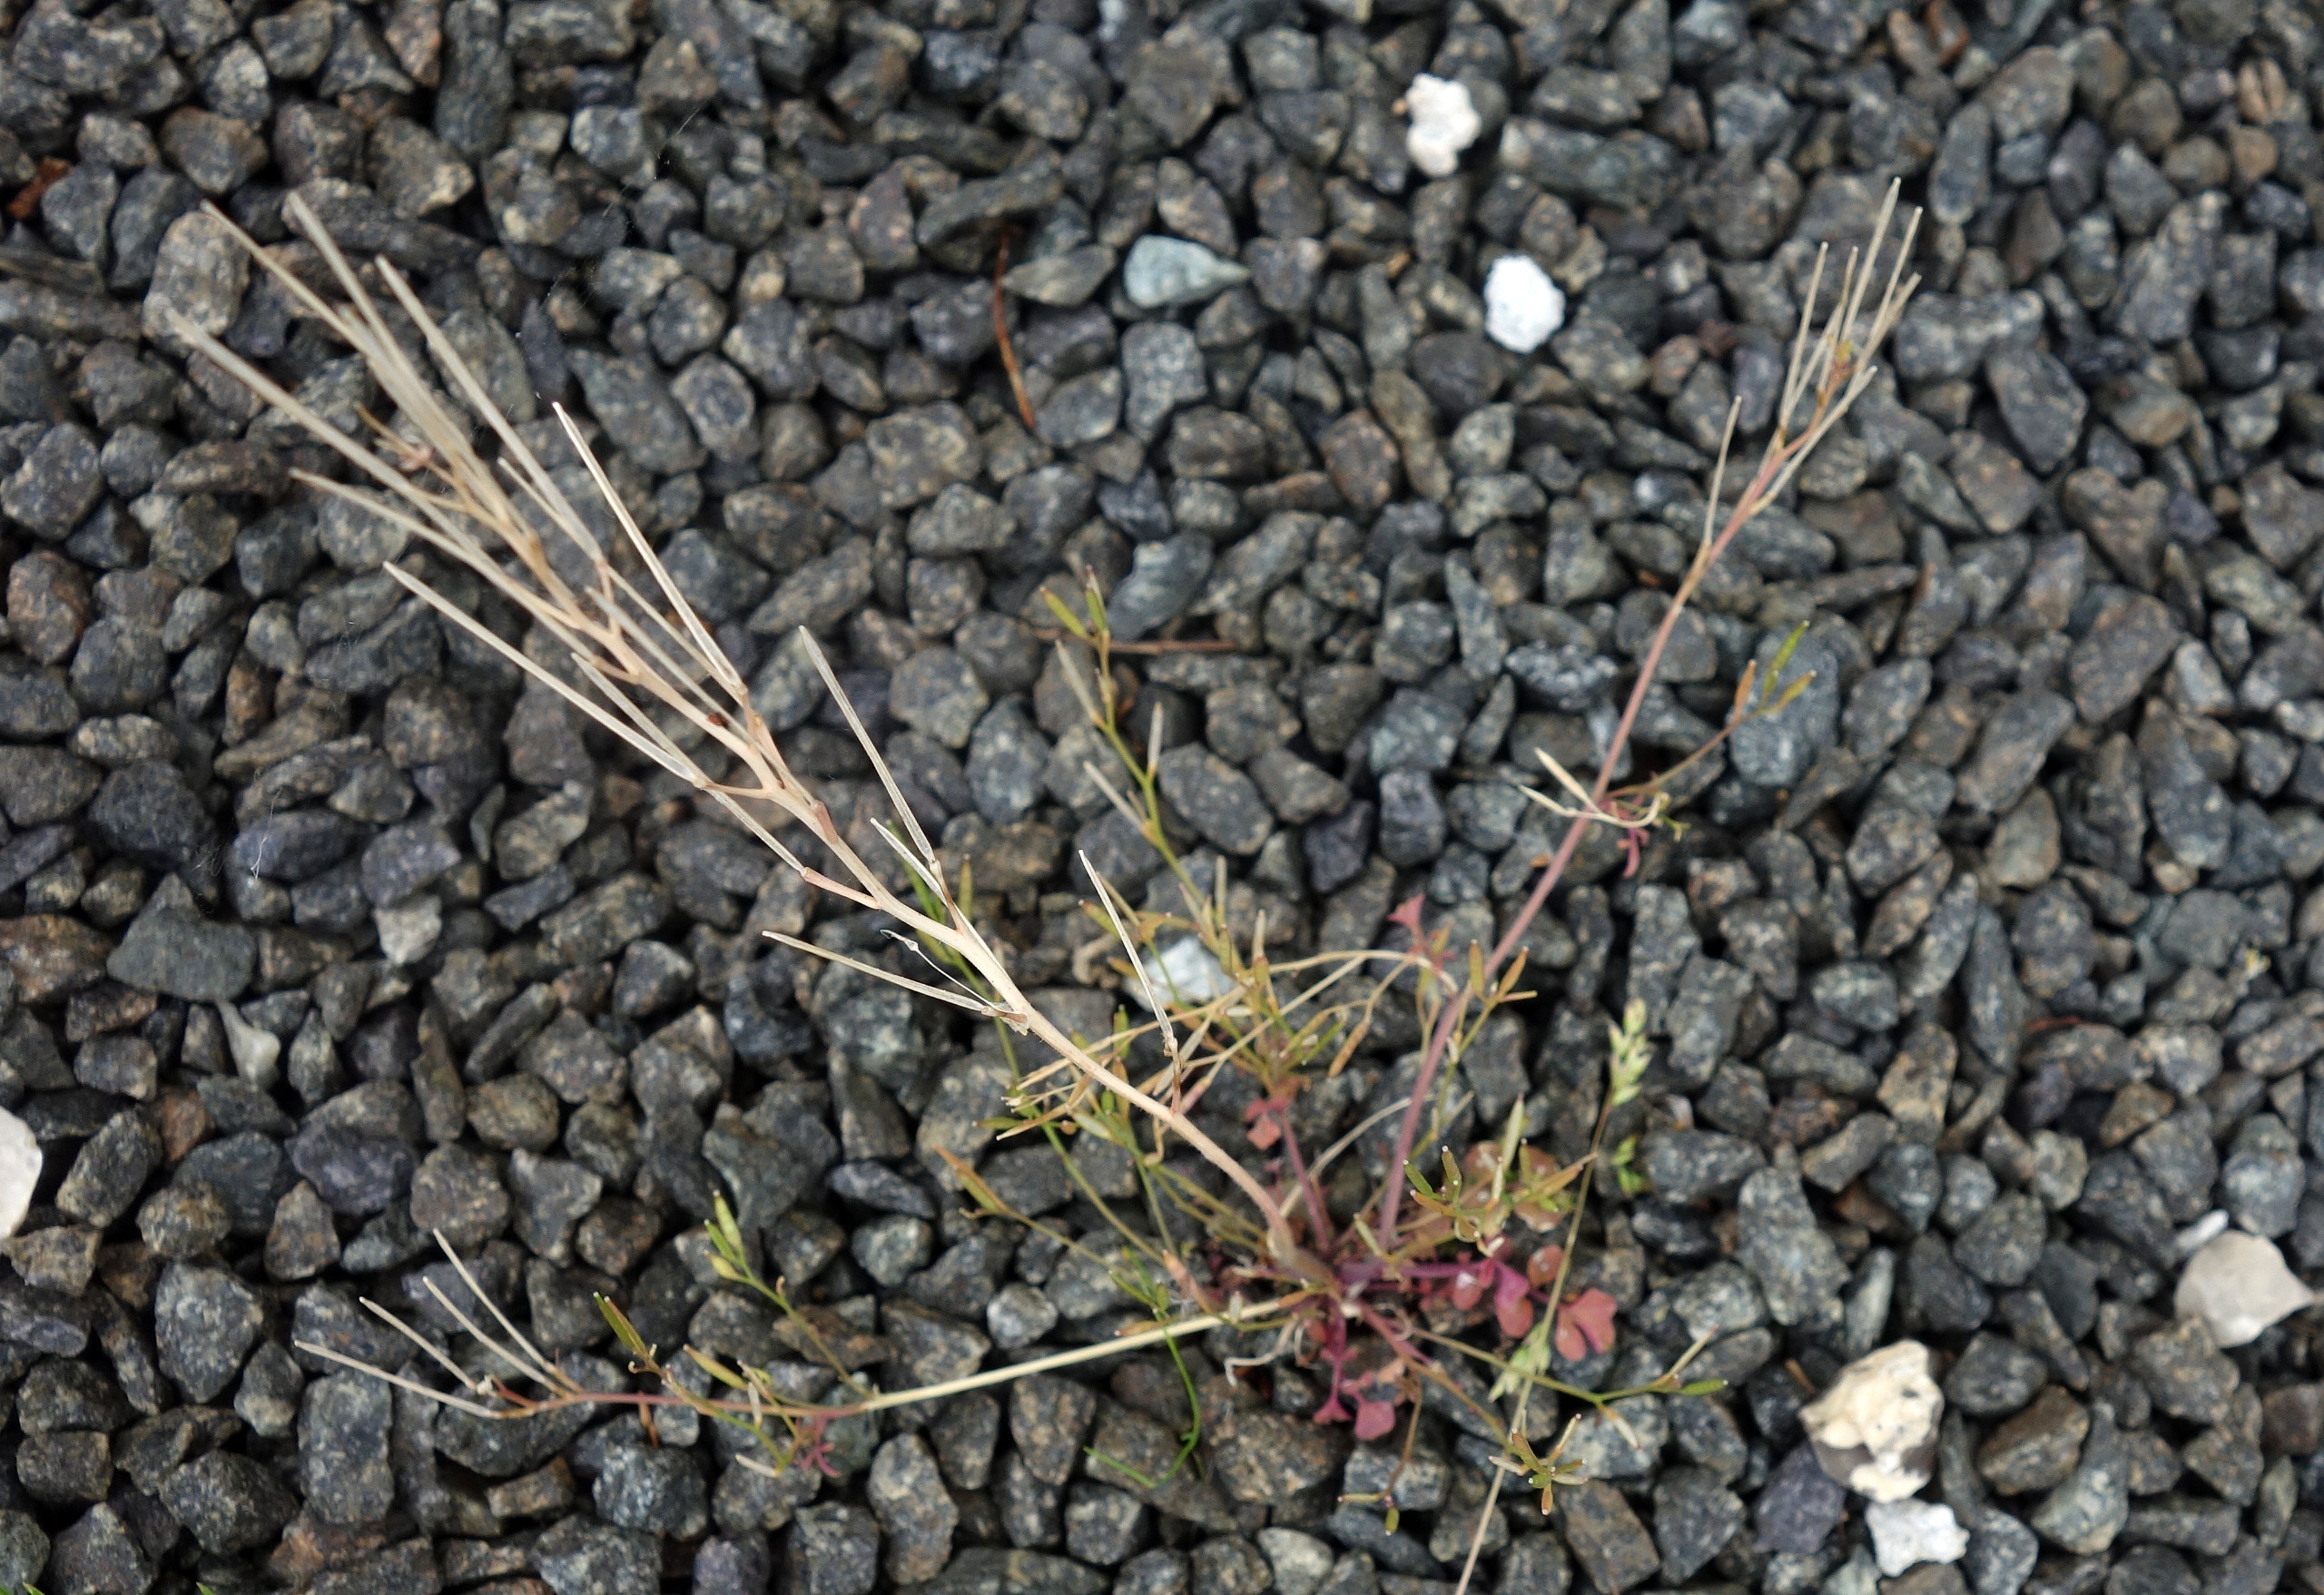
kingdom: Plantae
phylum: Tracheophyta
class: Magnoliopsida
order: Brassicales
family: Brassicaceae
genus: Cardamine
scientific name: Cardamine hirsuta
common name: Roset-springklap
